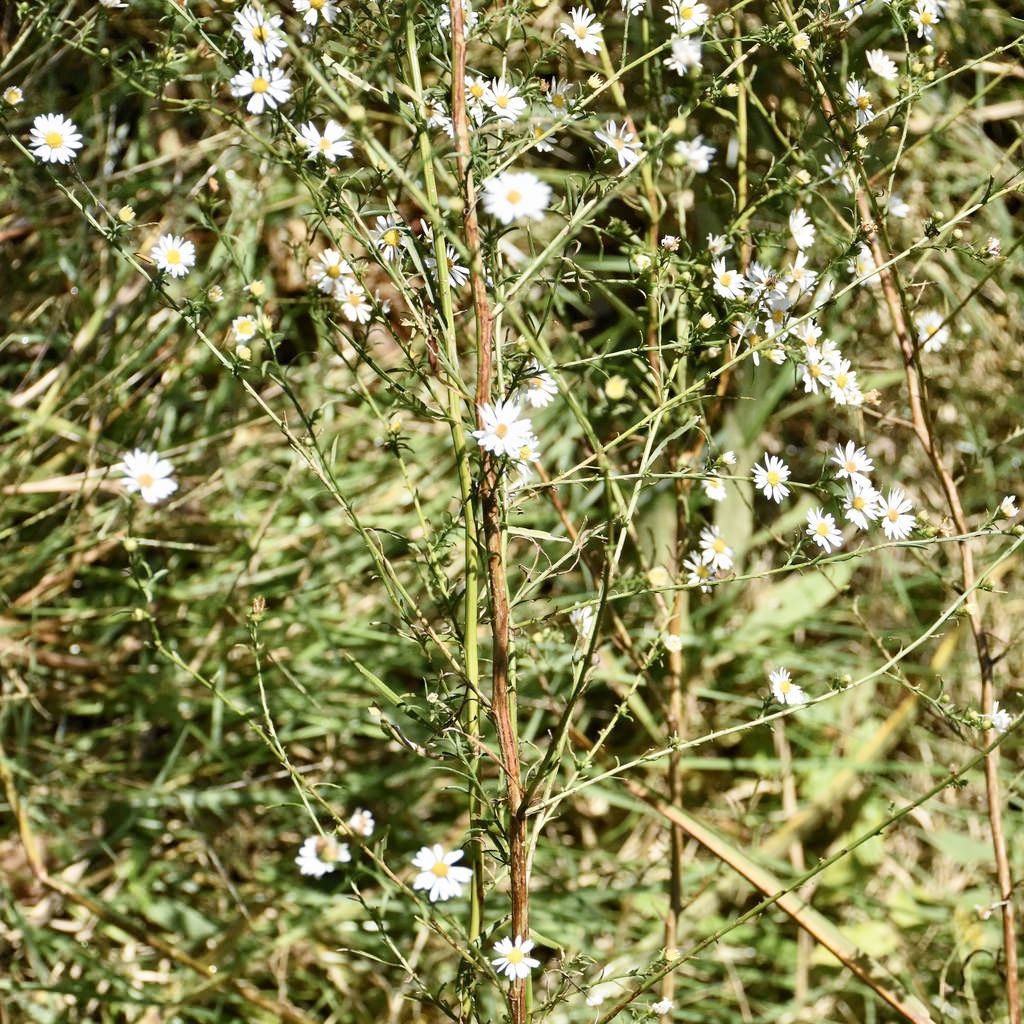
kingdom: Plantae
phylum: Tracheophyta
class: Magnoliopsida
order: Asterales
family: Asteraceae
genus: Symphyotrichum
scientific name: Symphyotrichum lanceolatum
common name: Aster
